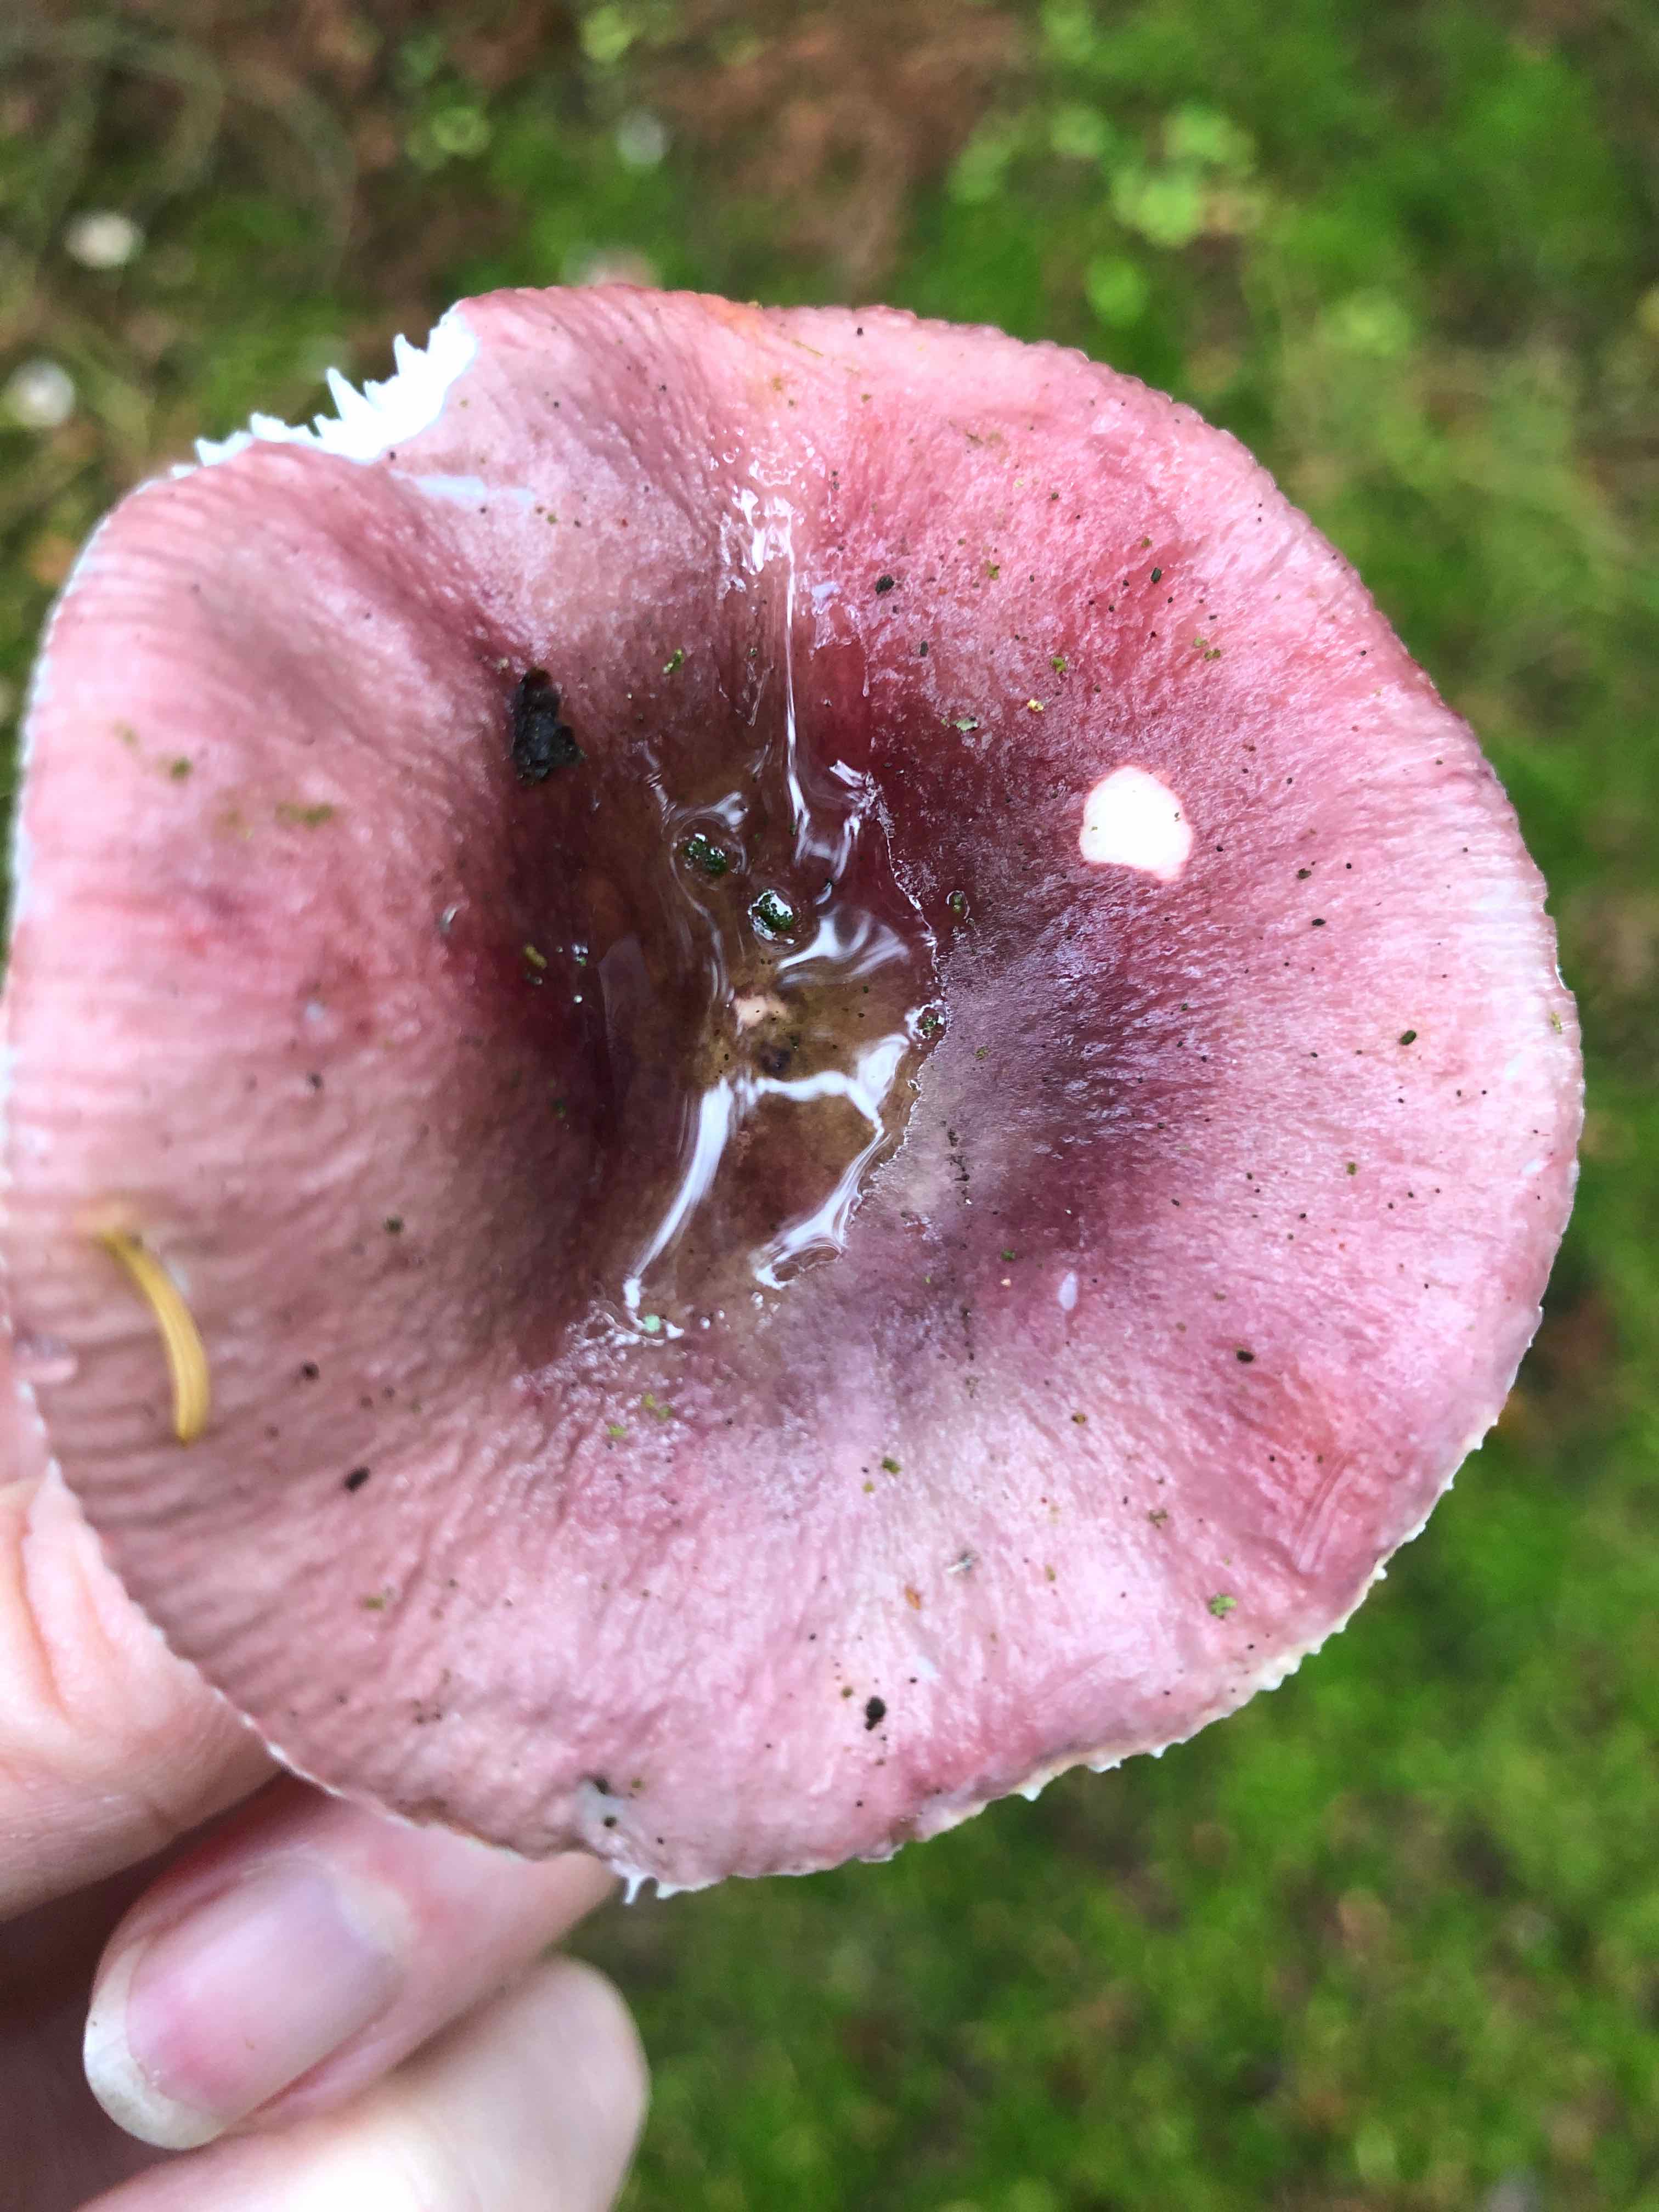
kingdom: Fungi
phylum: Basidiomycota
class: Agaricomycetes
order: Russulales
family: Russulaceae
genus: Russula
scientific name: Russula
